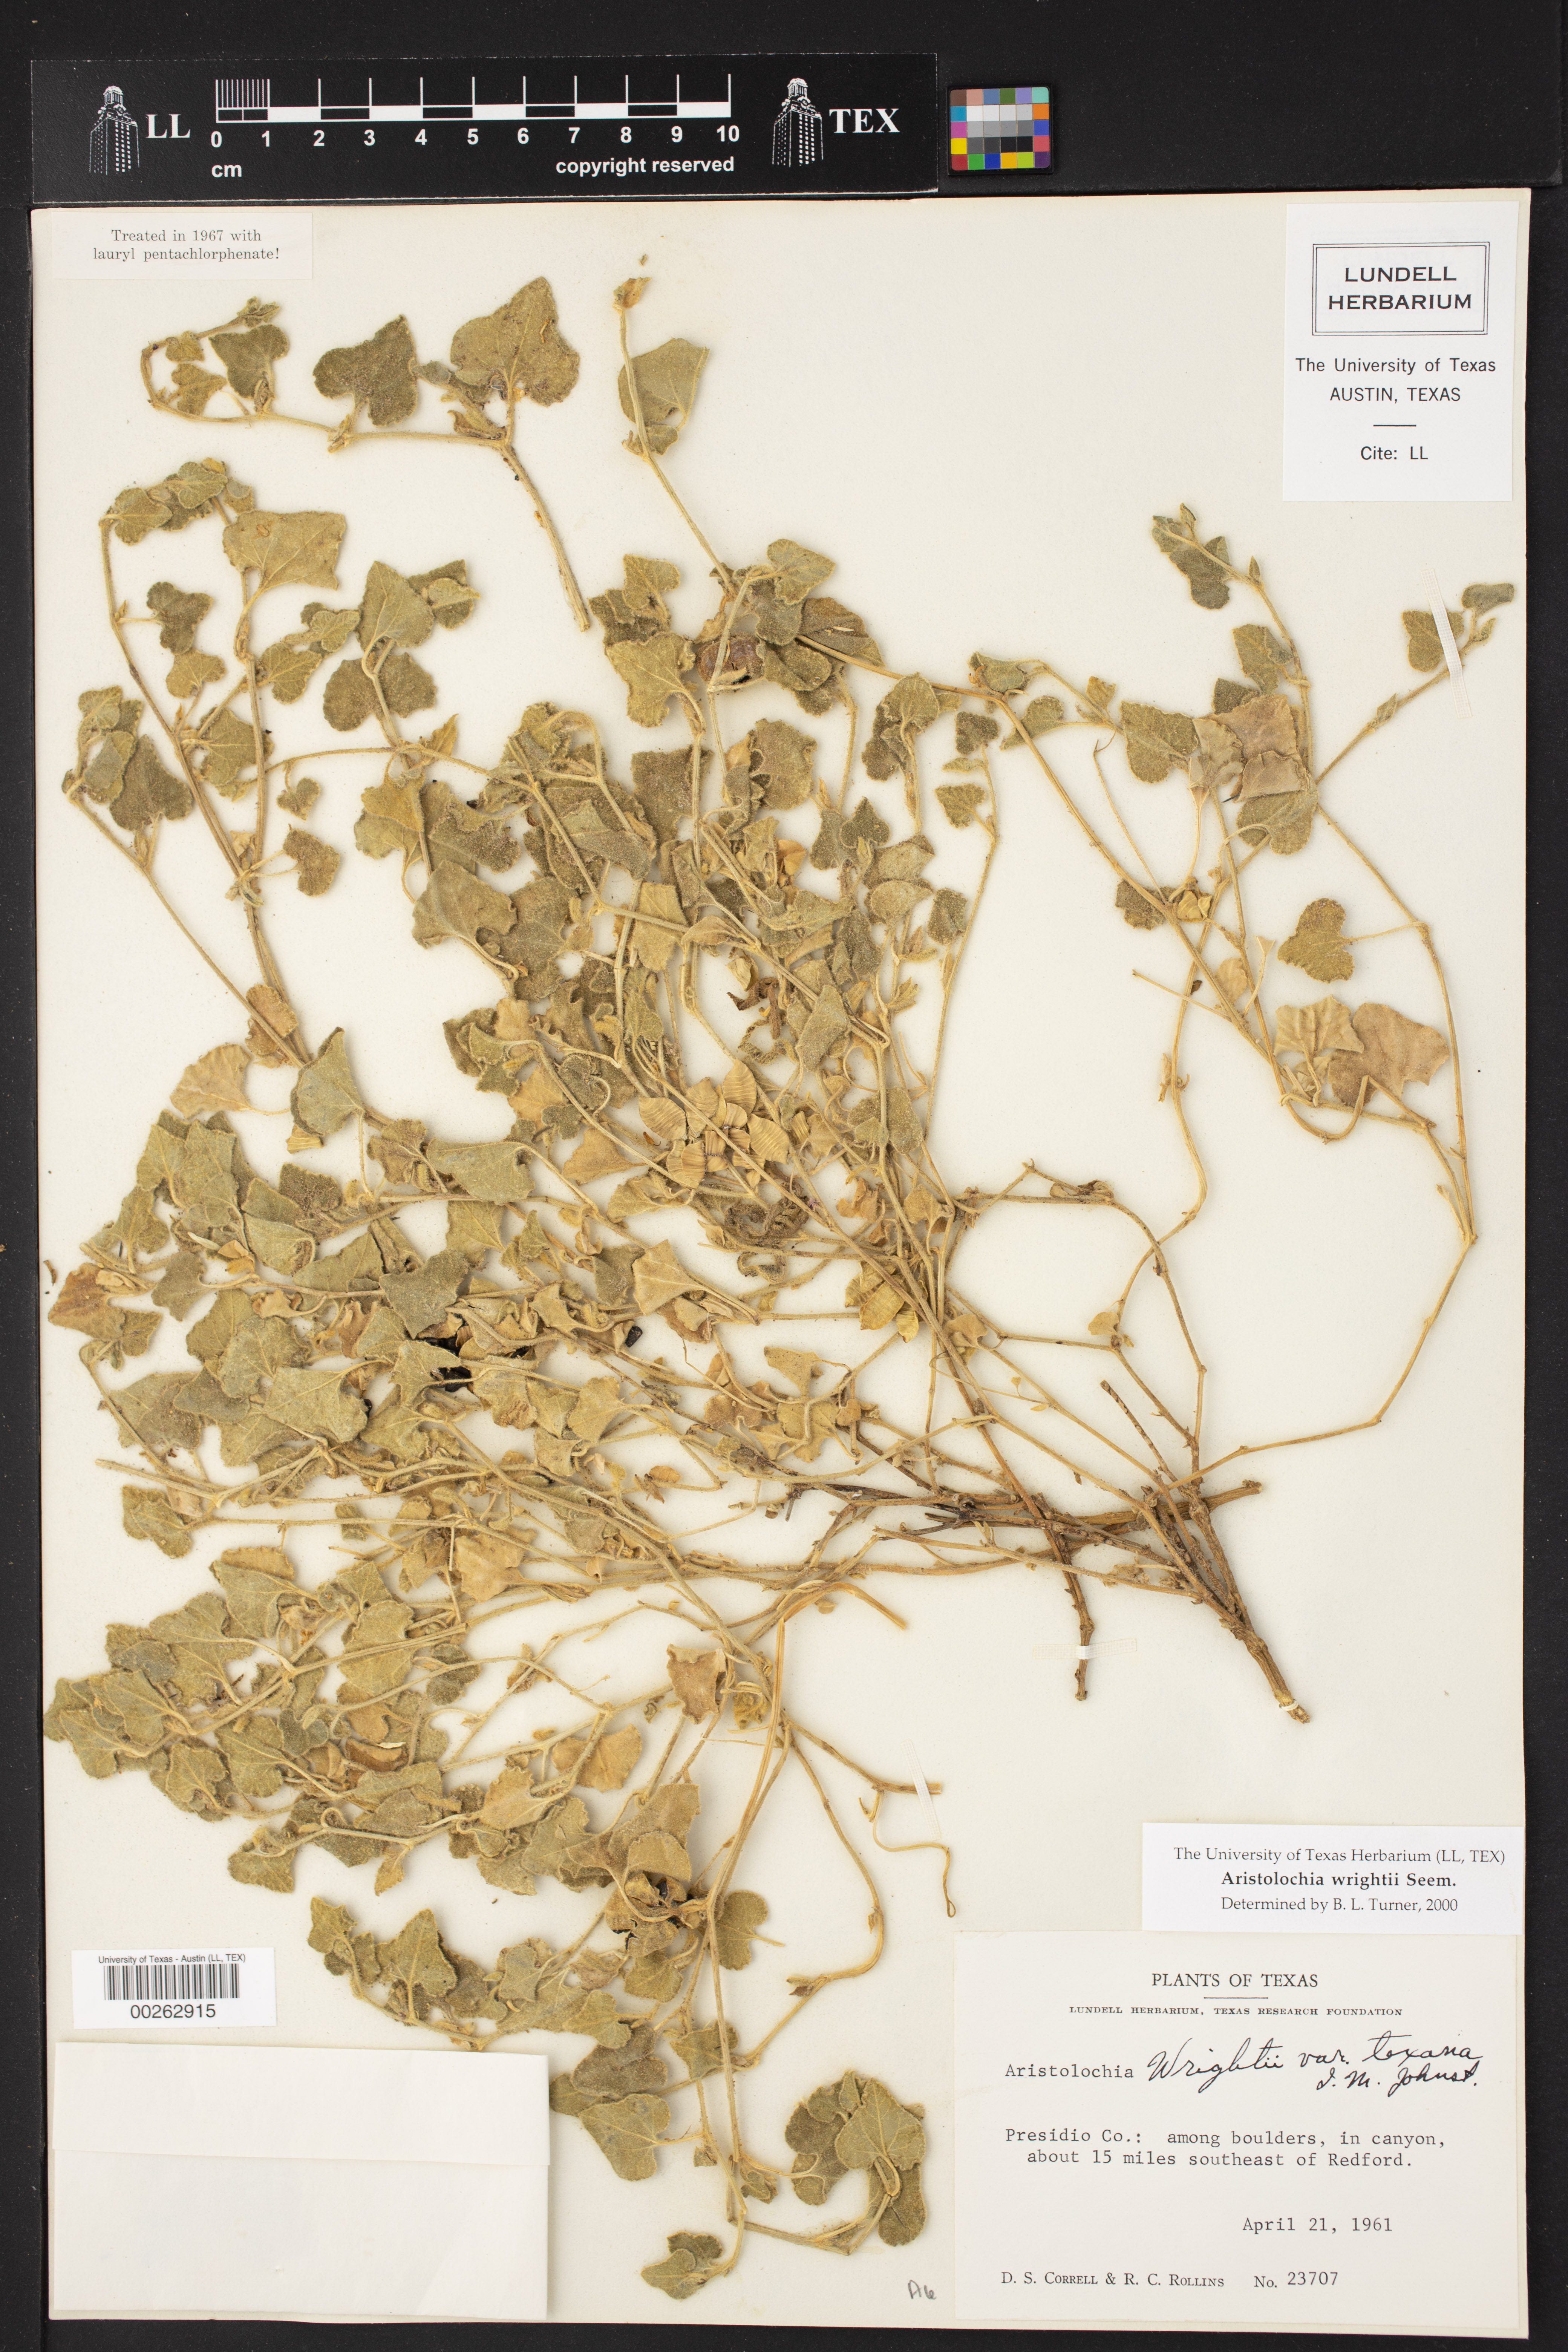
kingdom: Plantae
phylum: Tracheophyta
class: Magnoliopsida
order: Piperales
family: Aristolochiaceae
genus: Aristolochia
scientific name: Aristolochia wrightii
